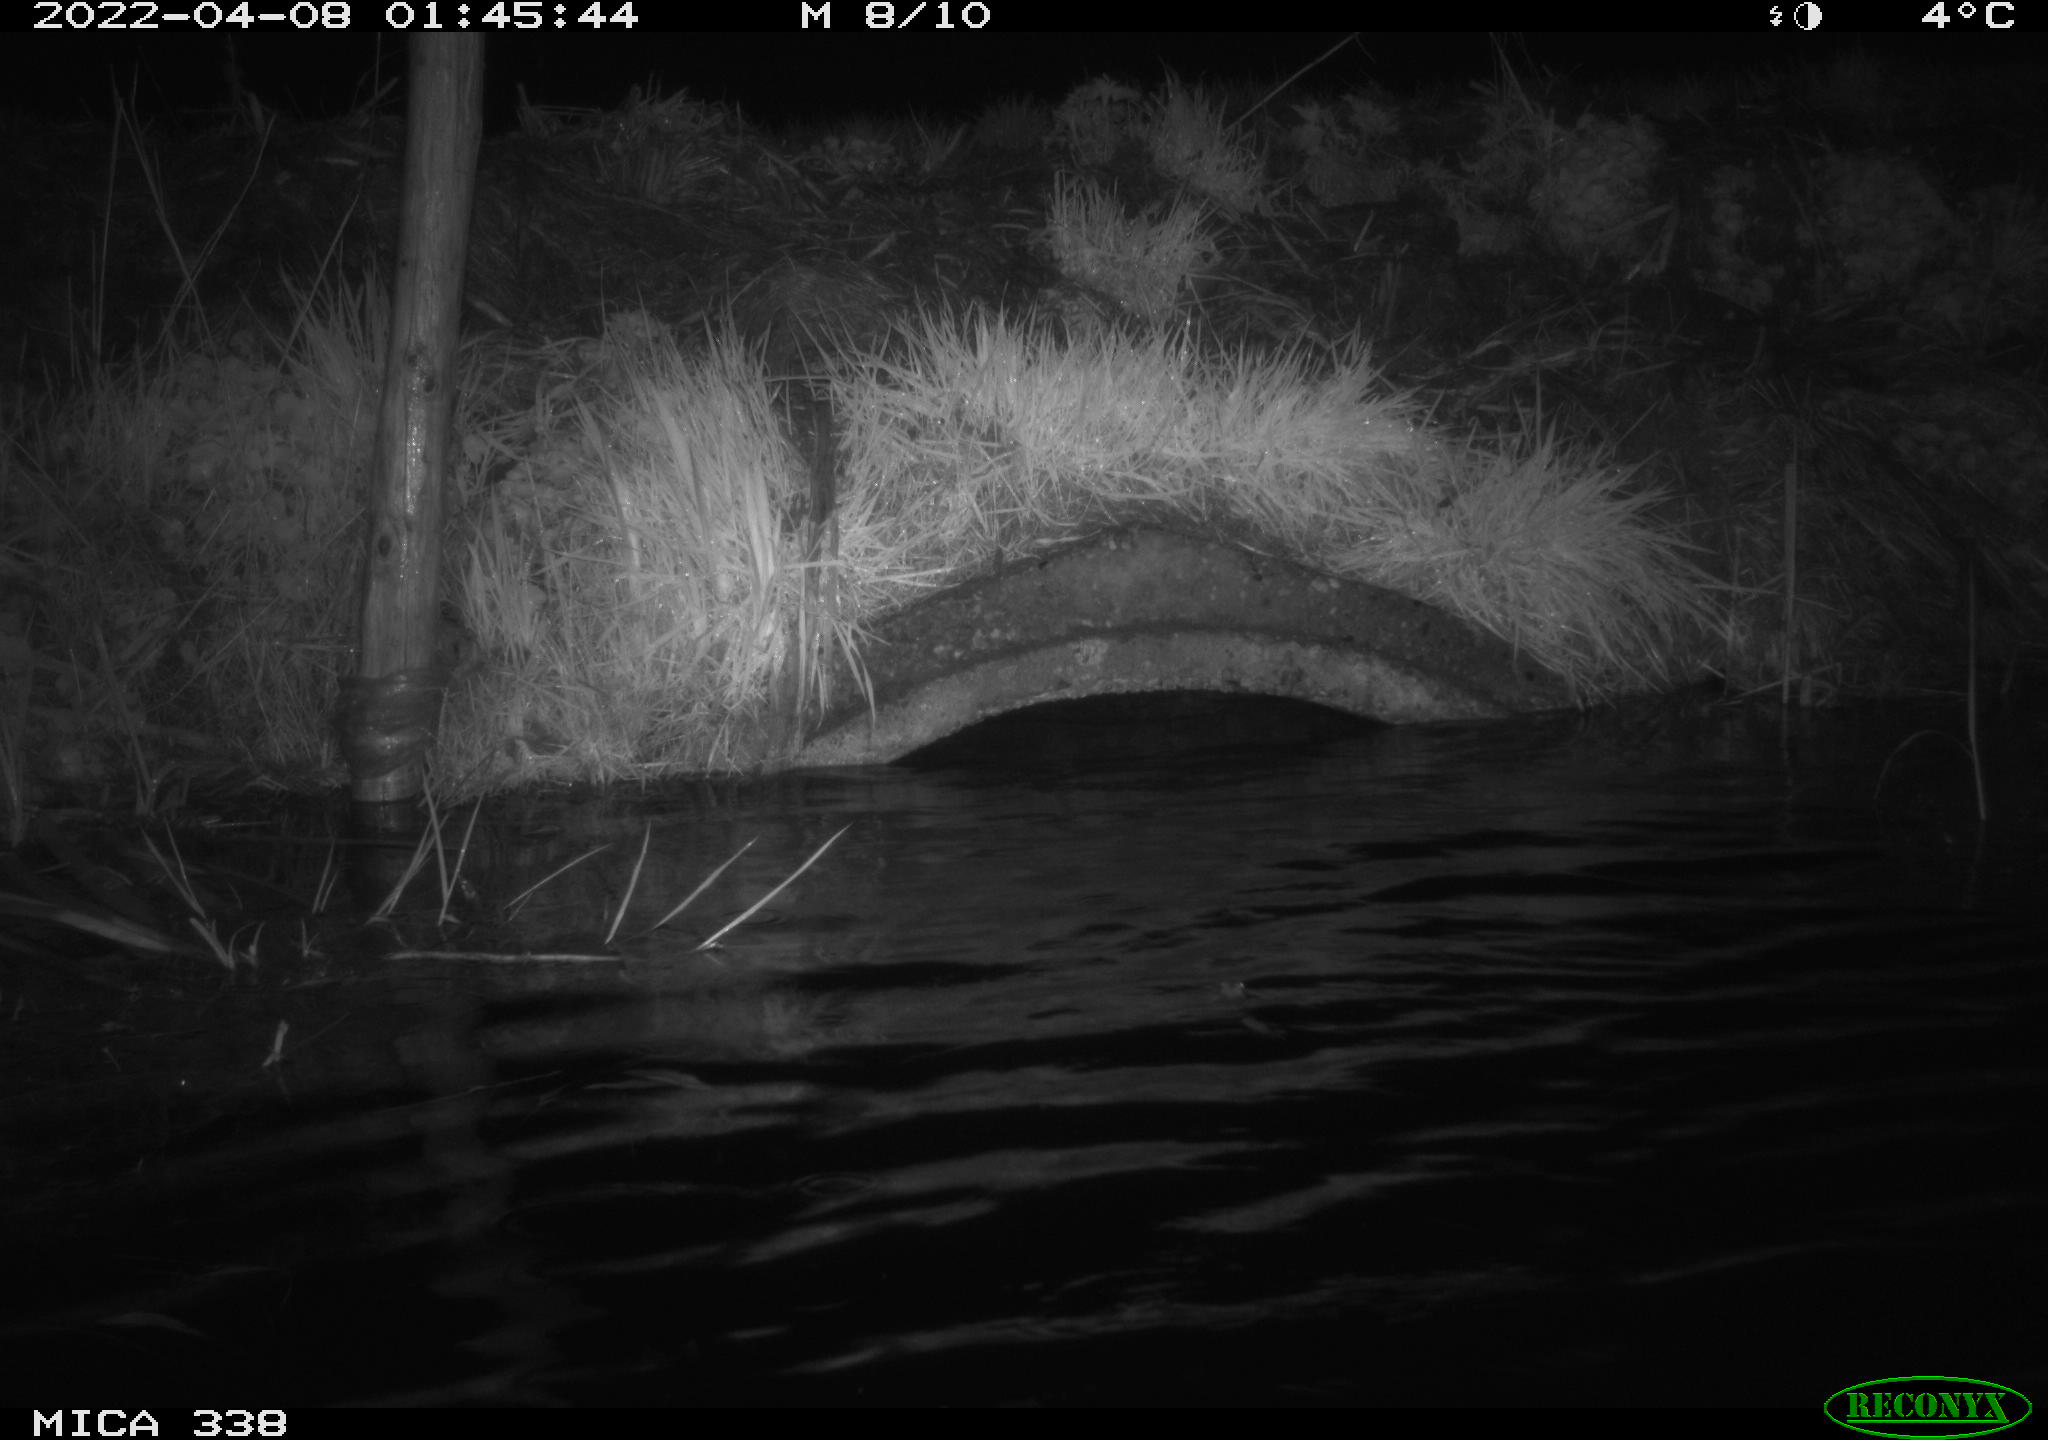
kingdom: Animalia
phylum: Chordata
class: Mammalia
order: Rodentia
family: Muridae
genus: Rattus
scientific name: Rattus norvegicus
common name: Brown rat
